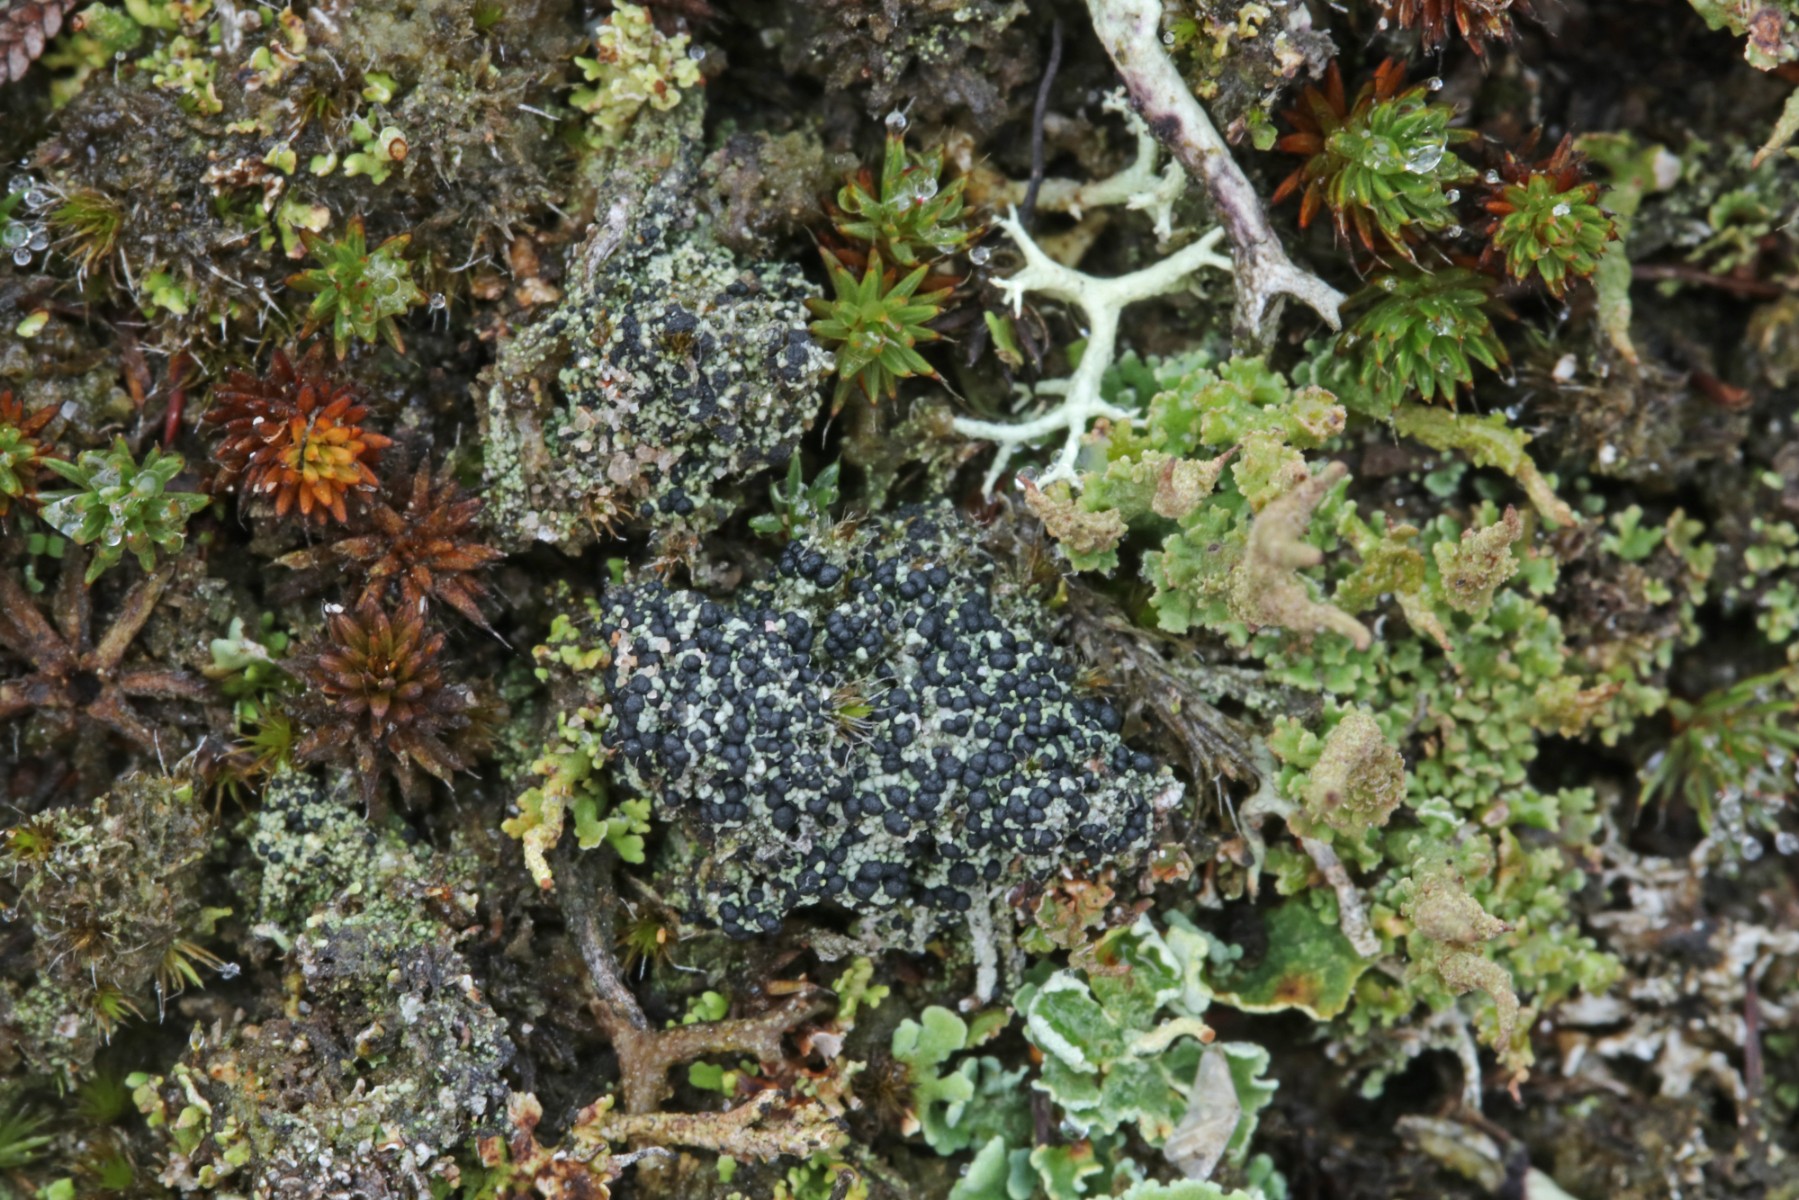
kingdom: Fungi
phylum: Ascomycota
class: Lecanoromycetes
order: Lecanorales
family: Byssolomataceae
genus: Micarea
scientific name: Micarea lignaria
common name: tørve-knaplav
